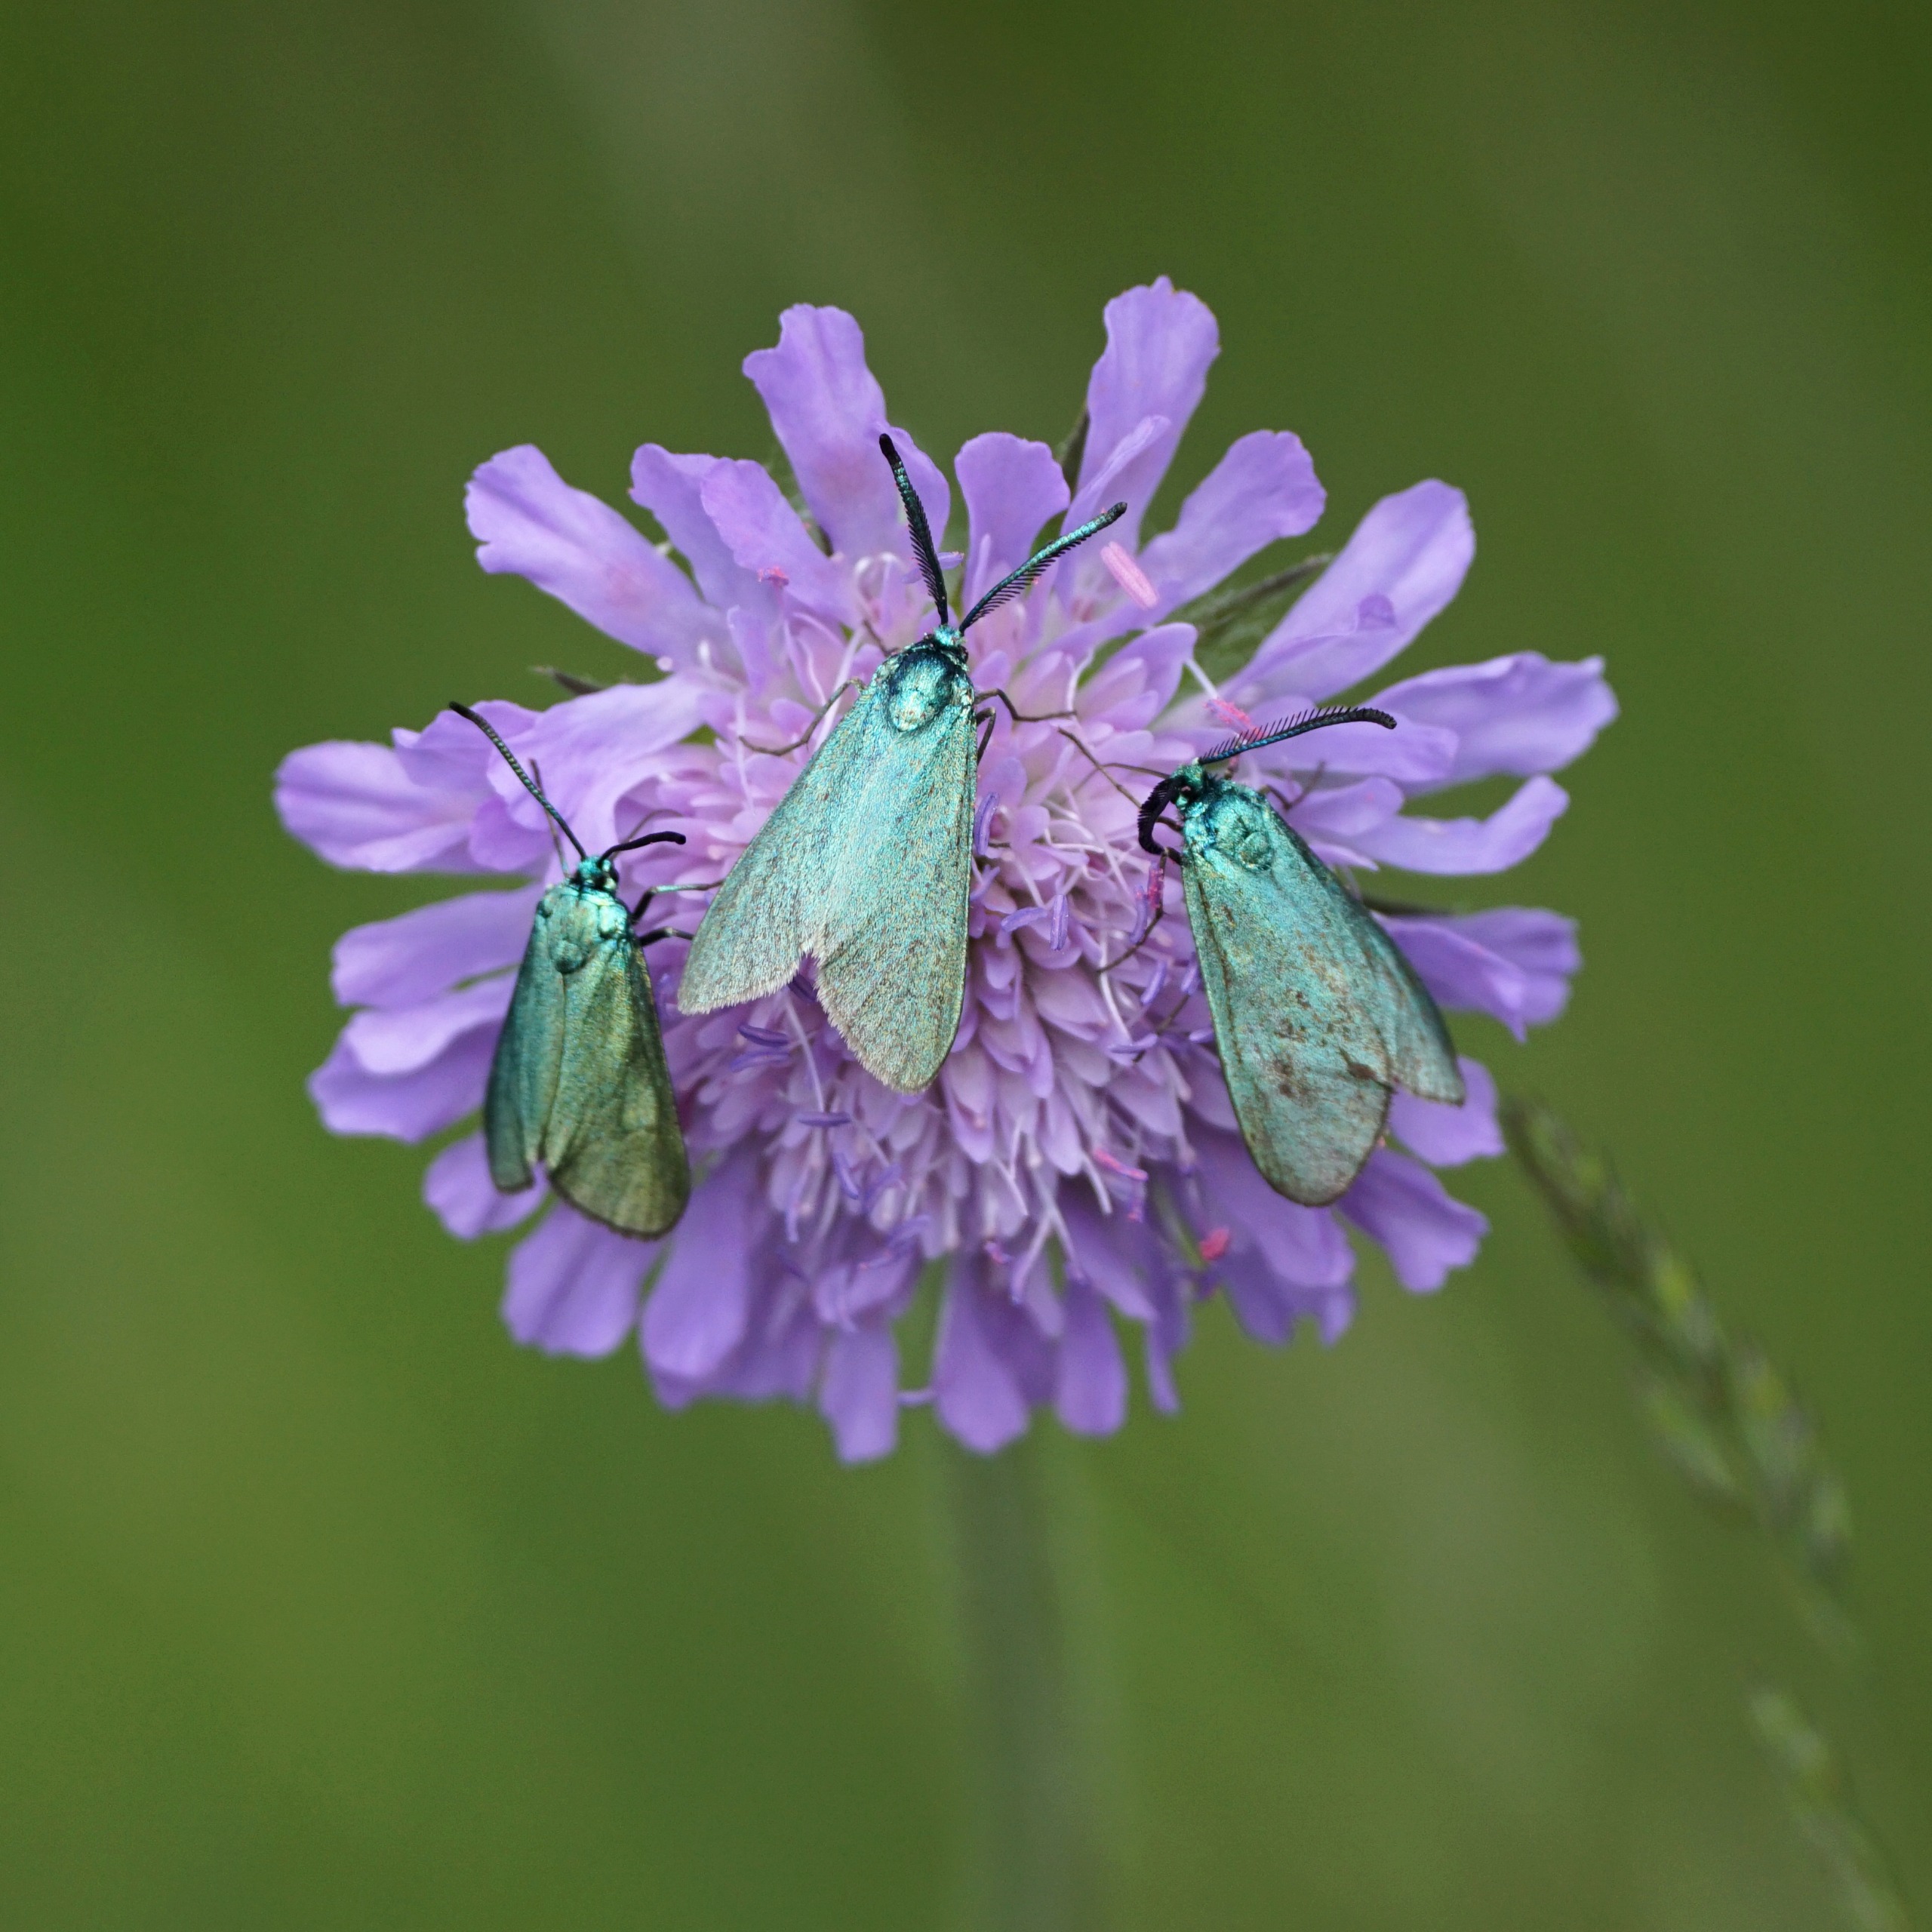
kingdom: Animalia
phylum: Arthropoda
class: Insecta
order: Lepidoptera
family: Zygaenidae
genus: Adscita
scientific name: Adscita statices
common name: Metalvinge
